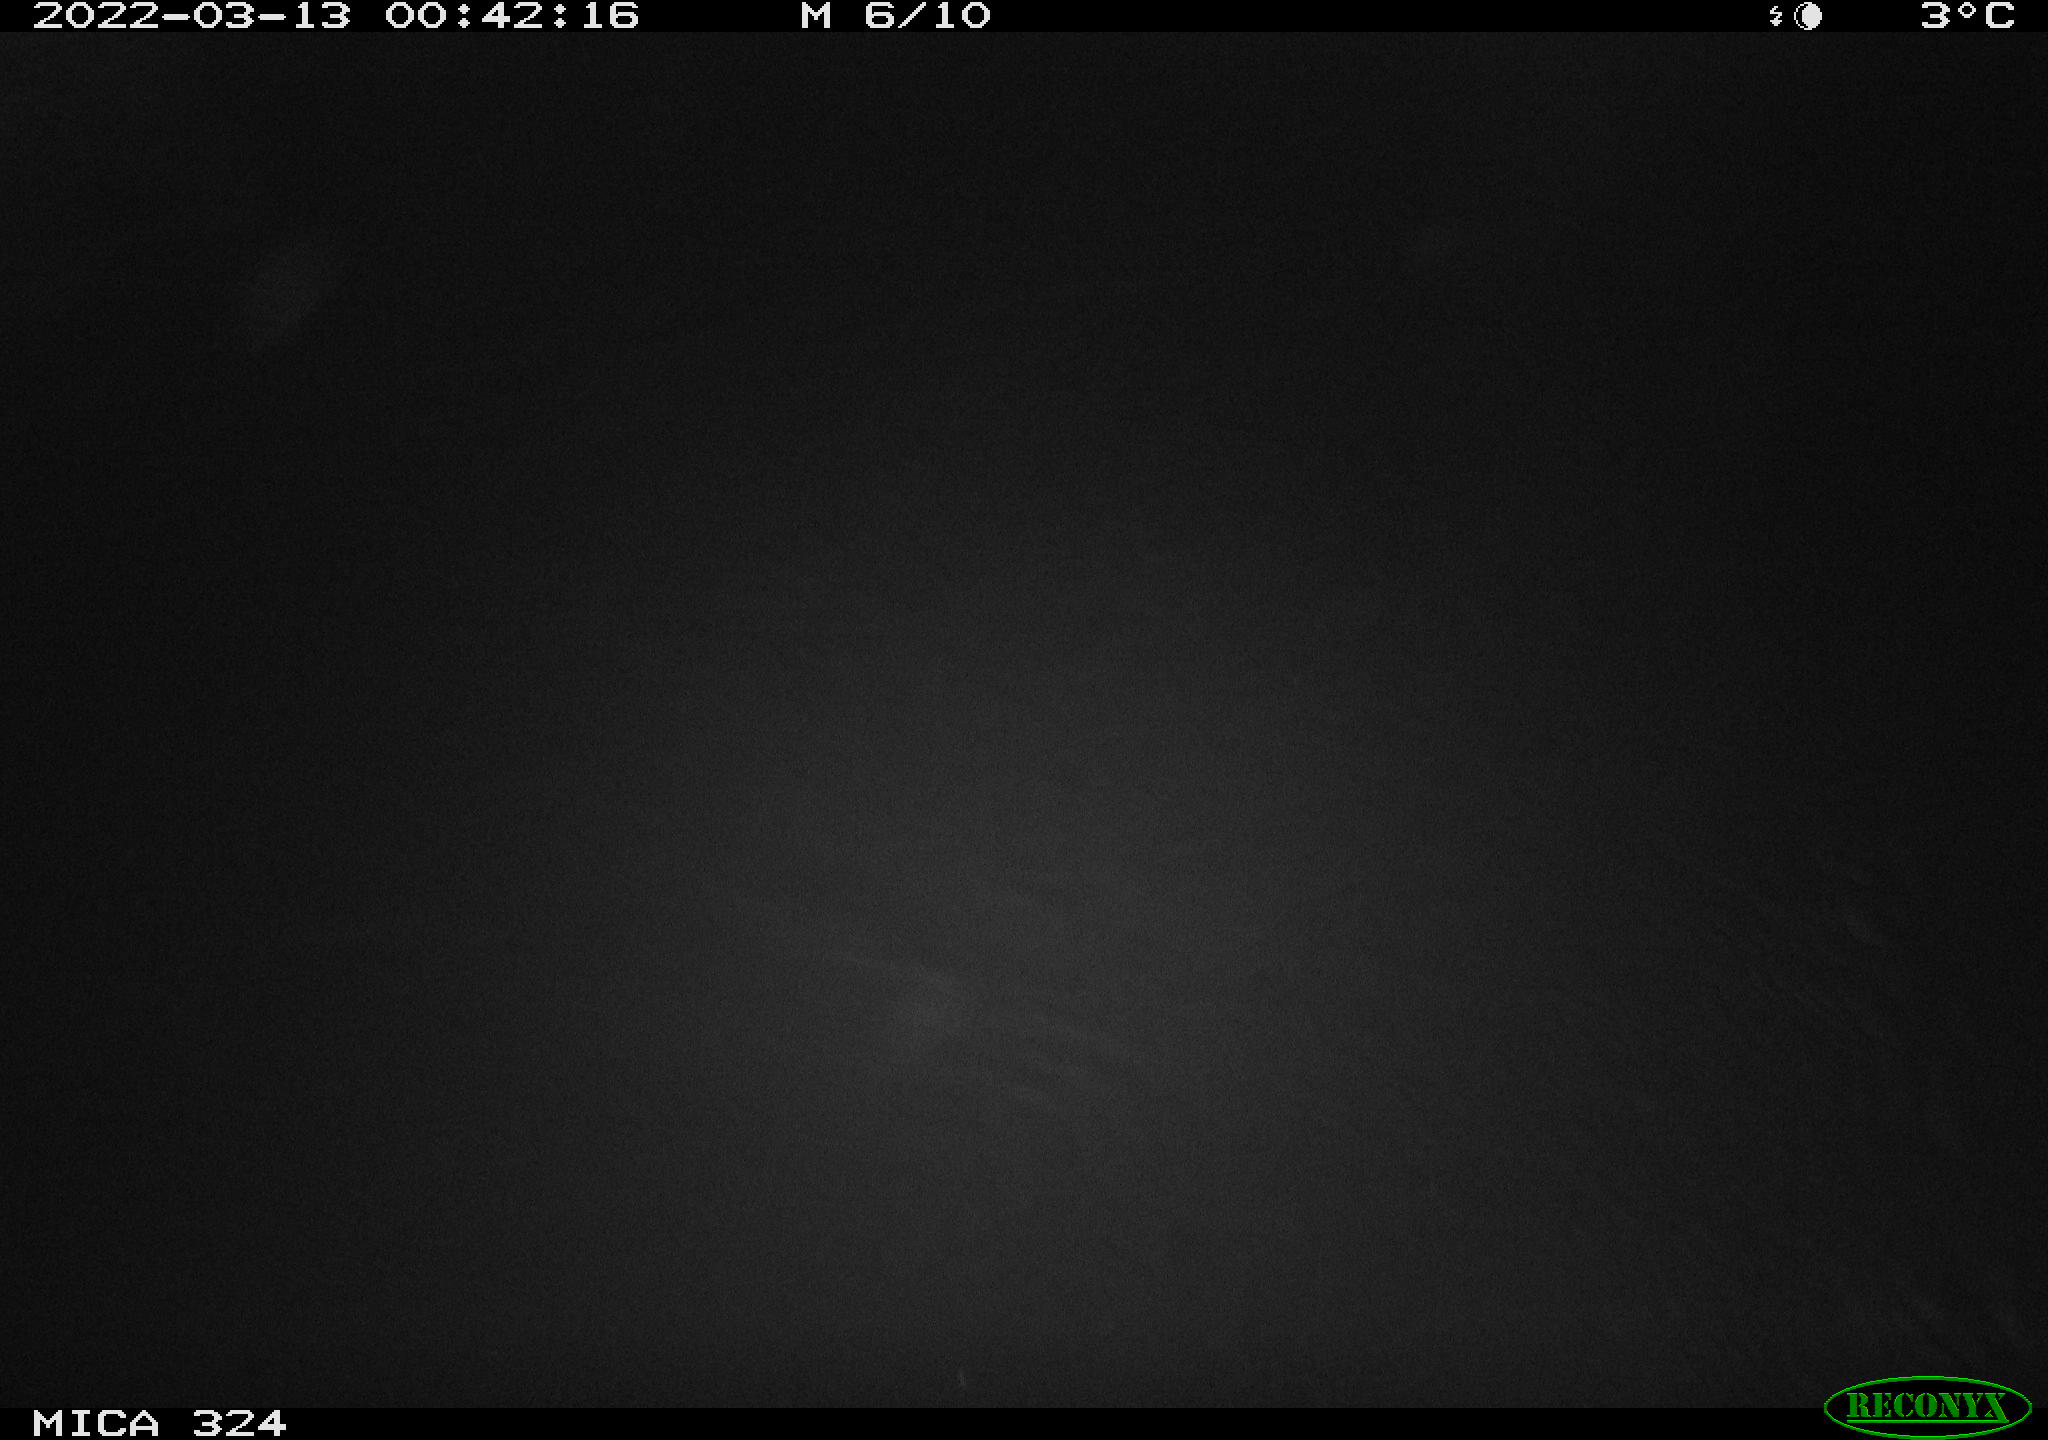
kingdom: Animalia
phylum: Chordata
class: Mammalia
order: Rodentia
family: Cricetidae
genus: Ondatra
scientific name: Ondatra zibethicus
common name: Muskrat
